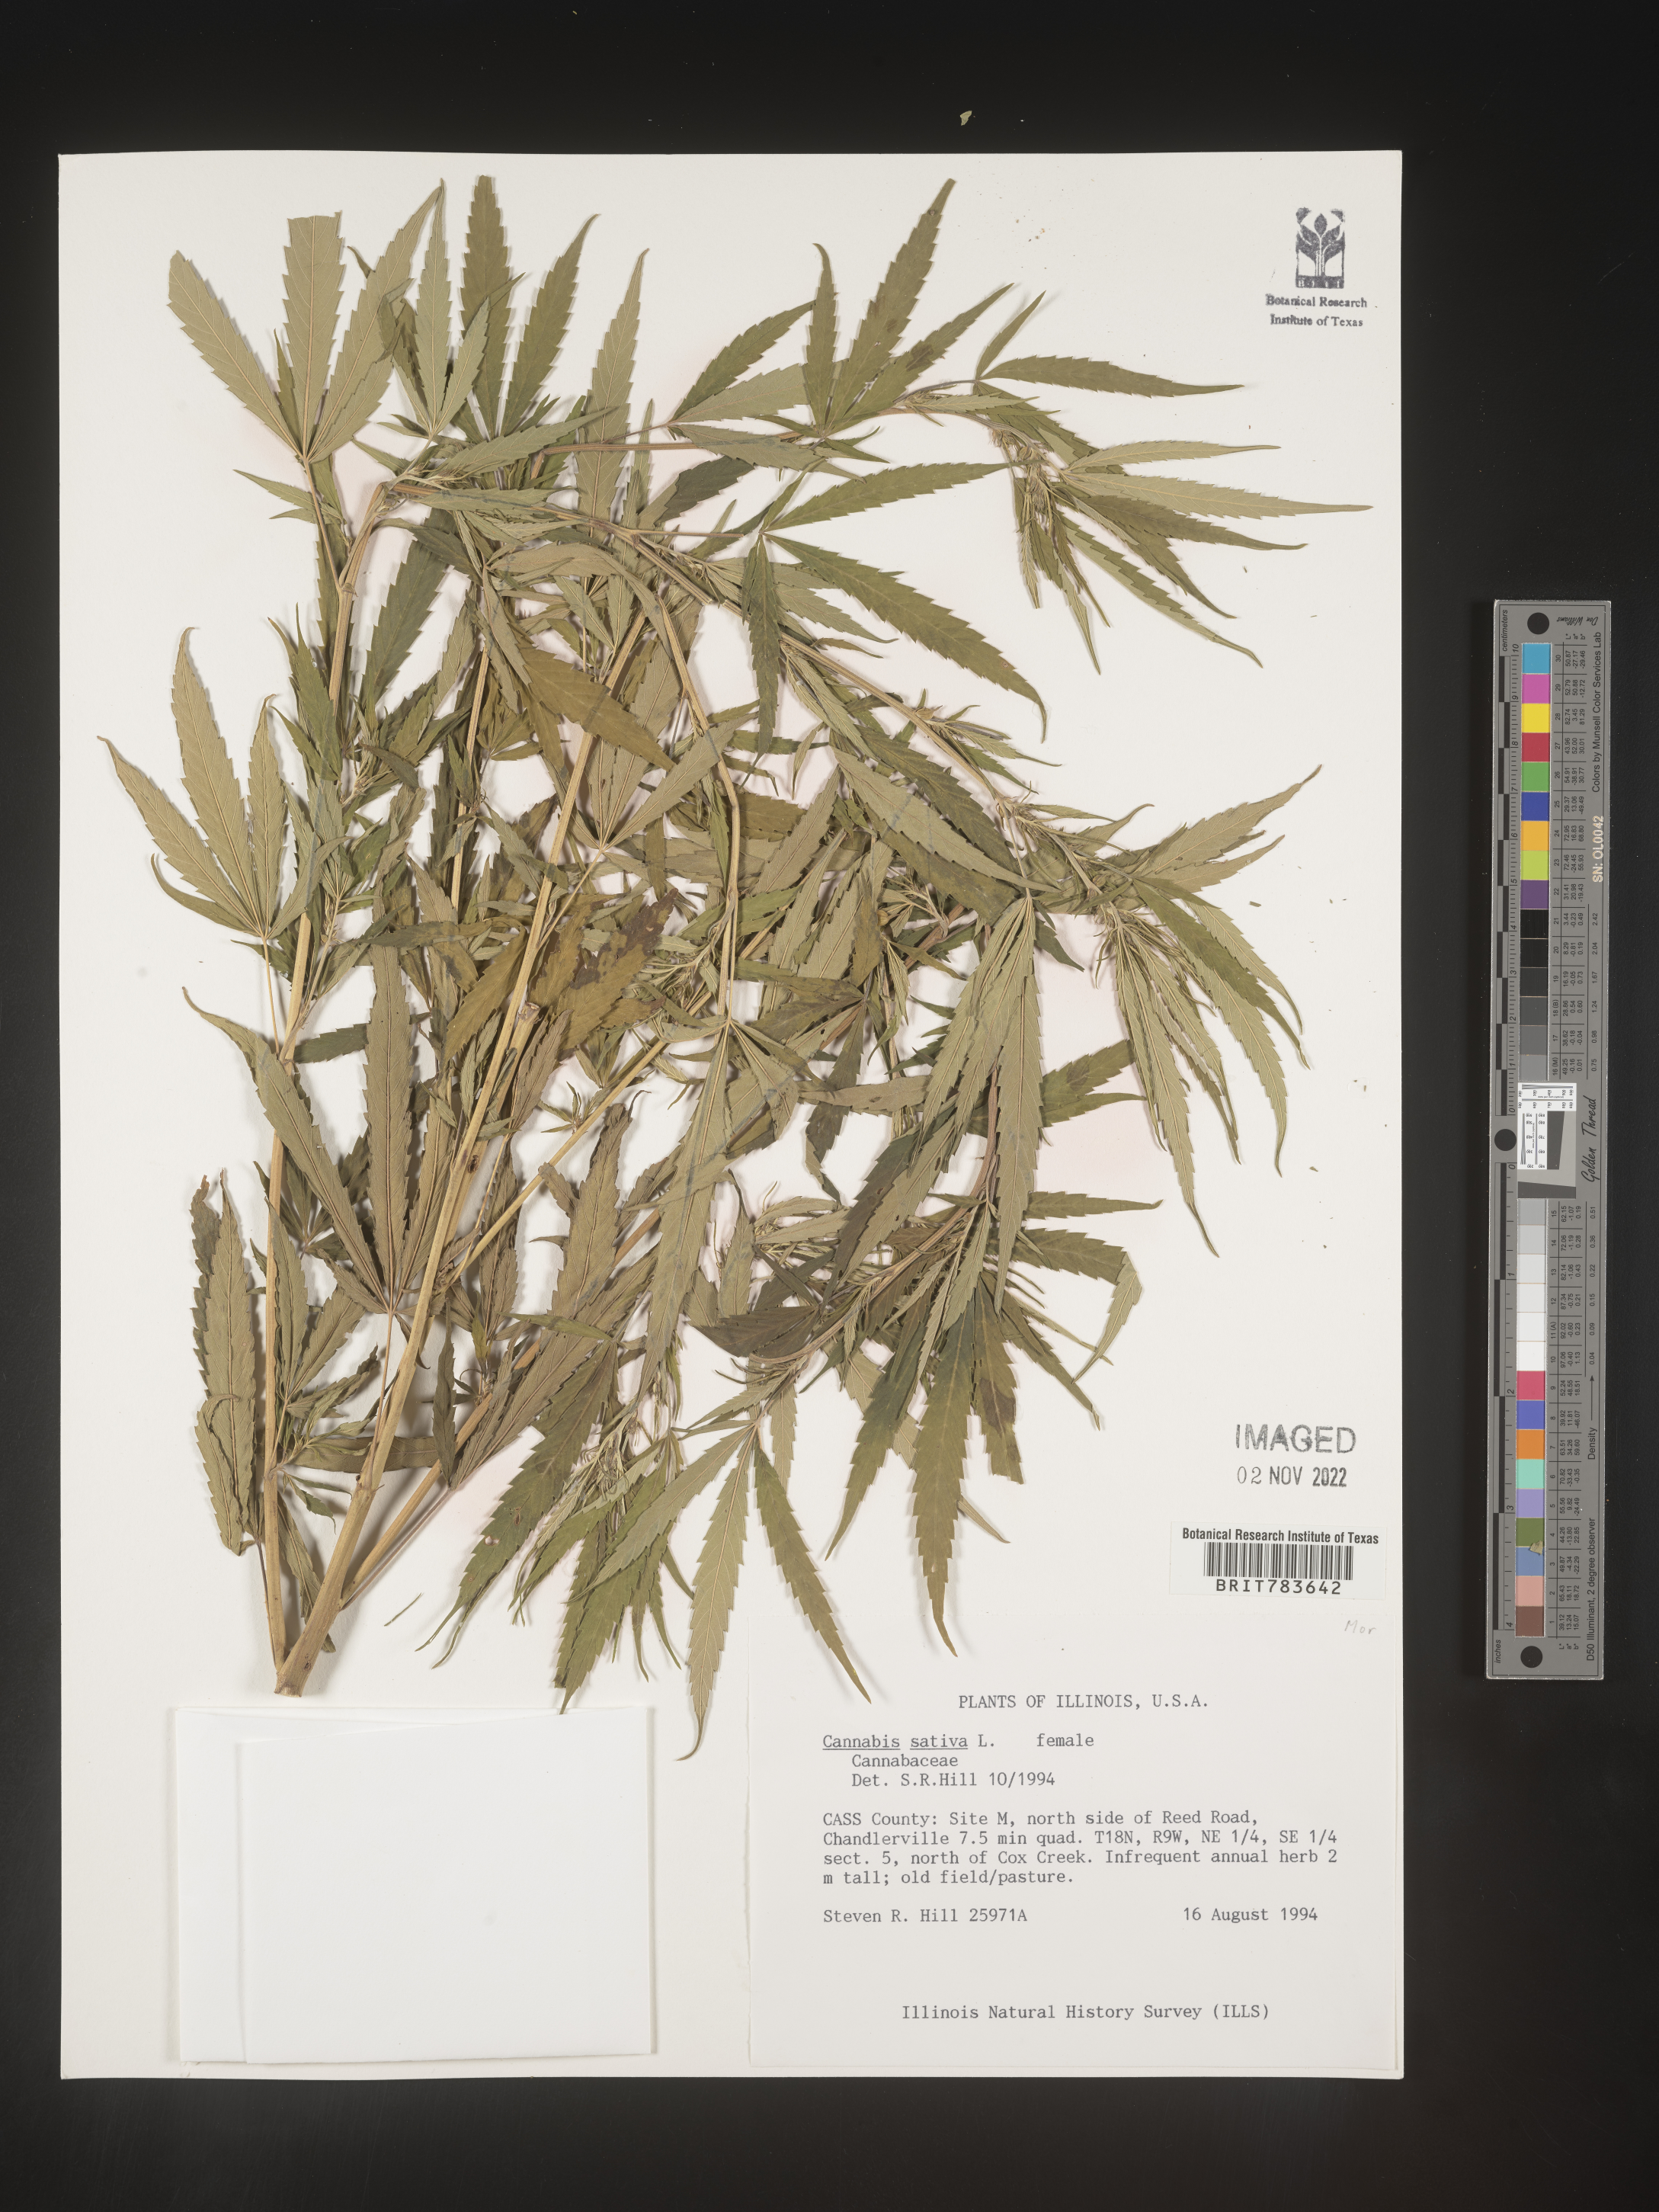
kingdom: Plantae
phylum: Tracheophyta
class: Magnoliopsida
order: Rosales
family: Cannabaceae
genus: Cannabis
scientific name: Cannabis sativa
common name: Hemp
